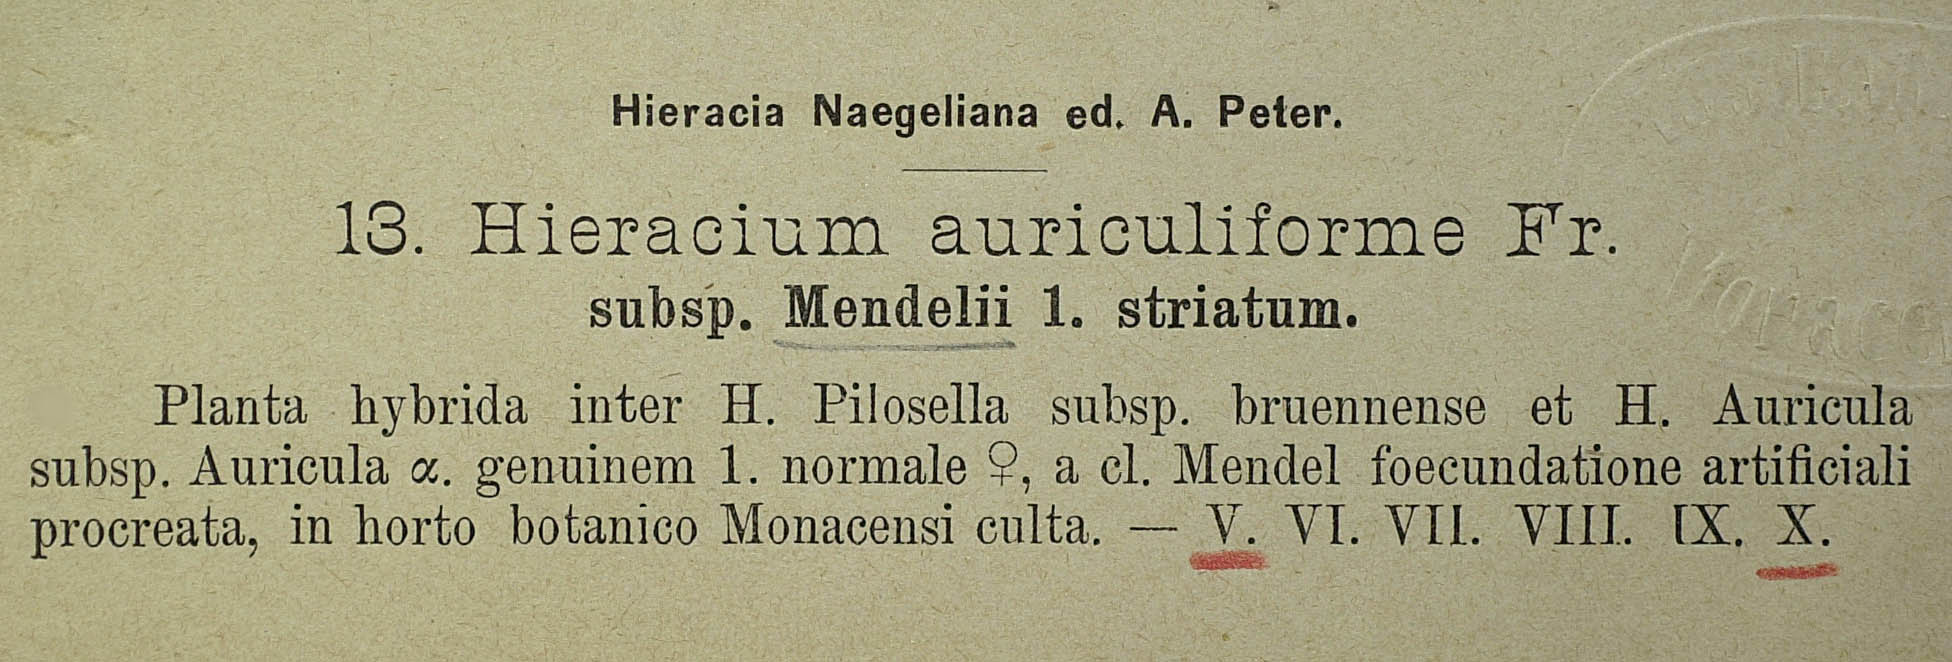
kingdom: Plantae
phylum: Tracheophyta
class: Magnoliopsida
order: Asterales
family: Asteraceae
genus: Pilosella
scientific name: Pilosella schultesii
